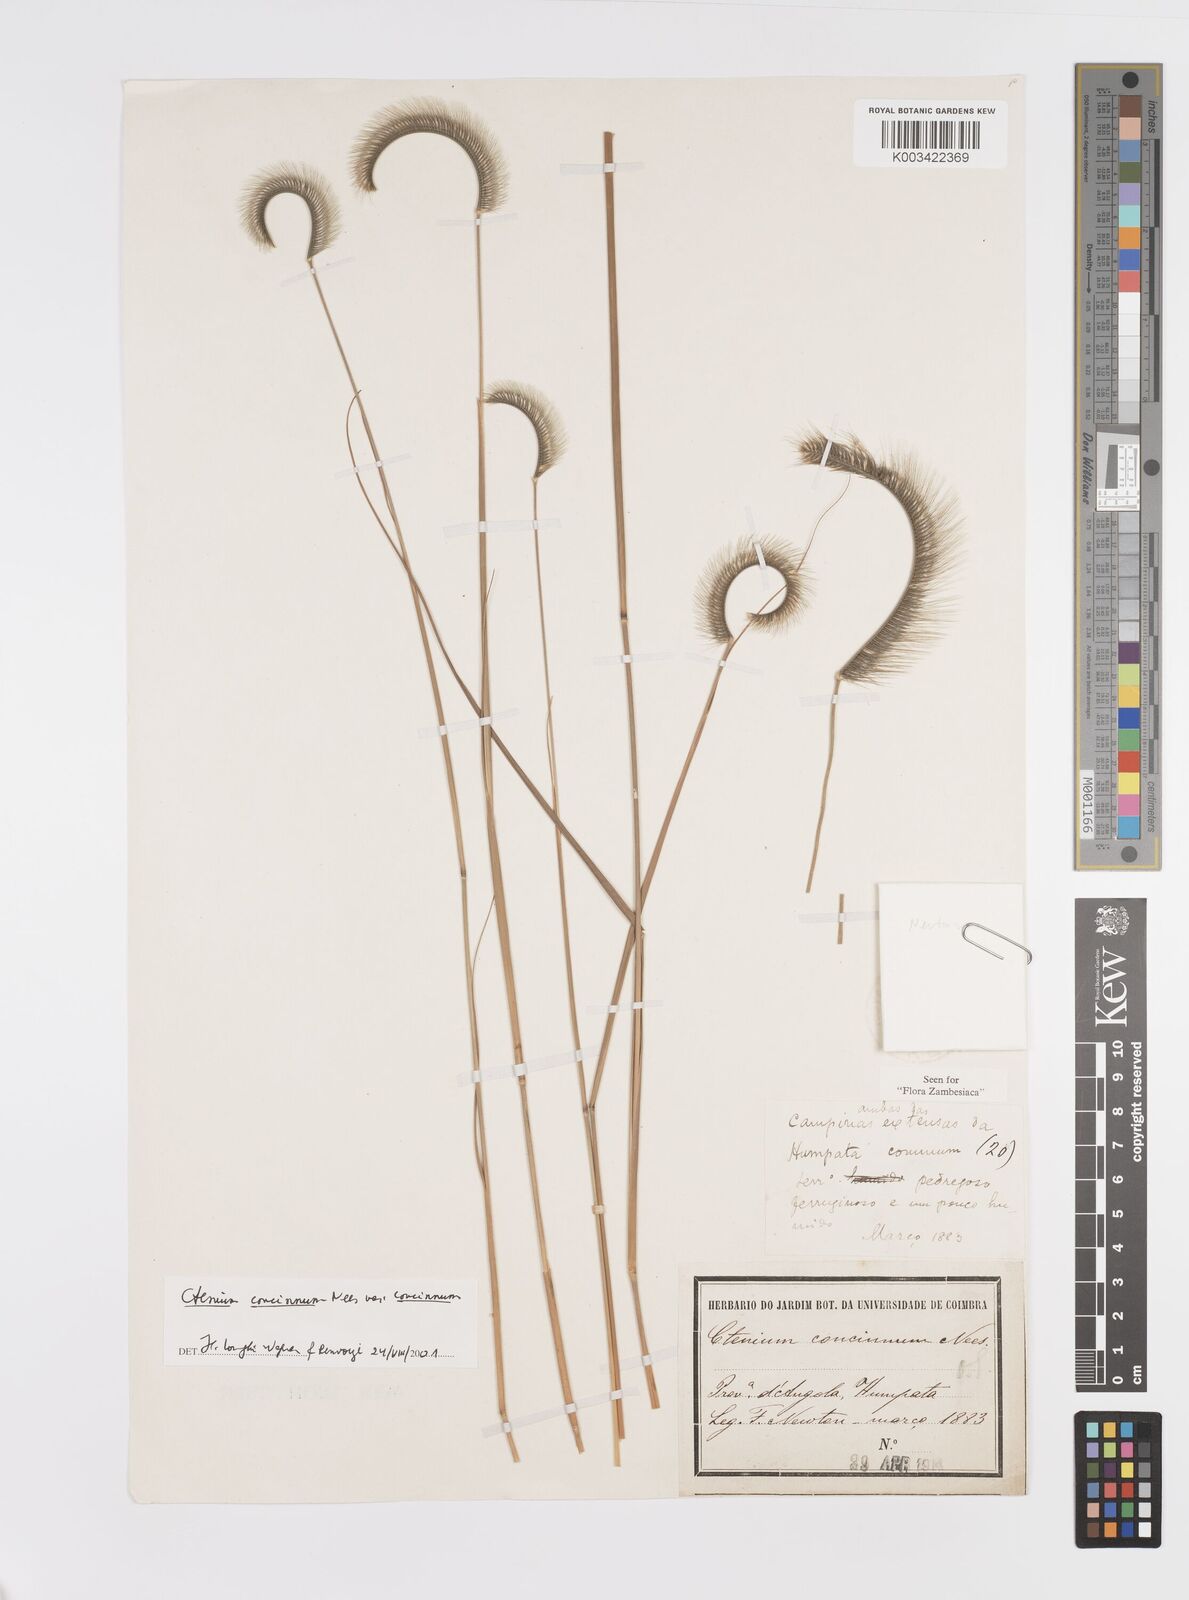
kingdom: Plantae
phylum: Tracheophyta
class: Liliopsida
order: Poales
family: Poaceae
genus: Ctenium
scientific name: Ctenium concinnum
